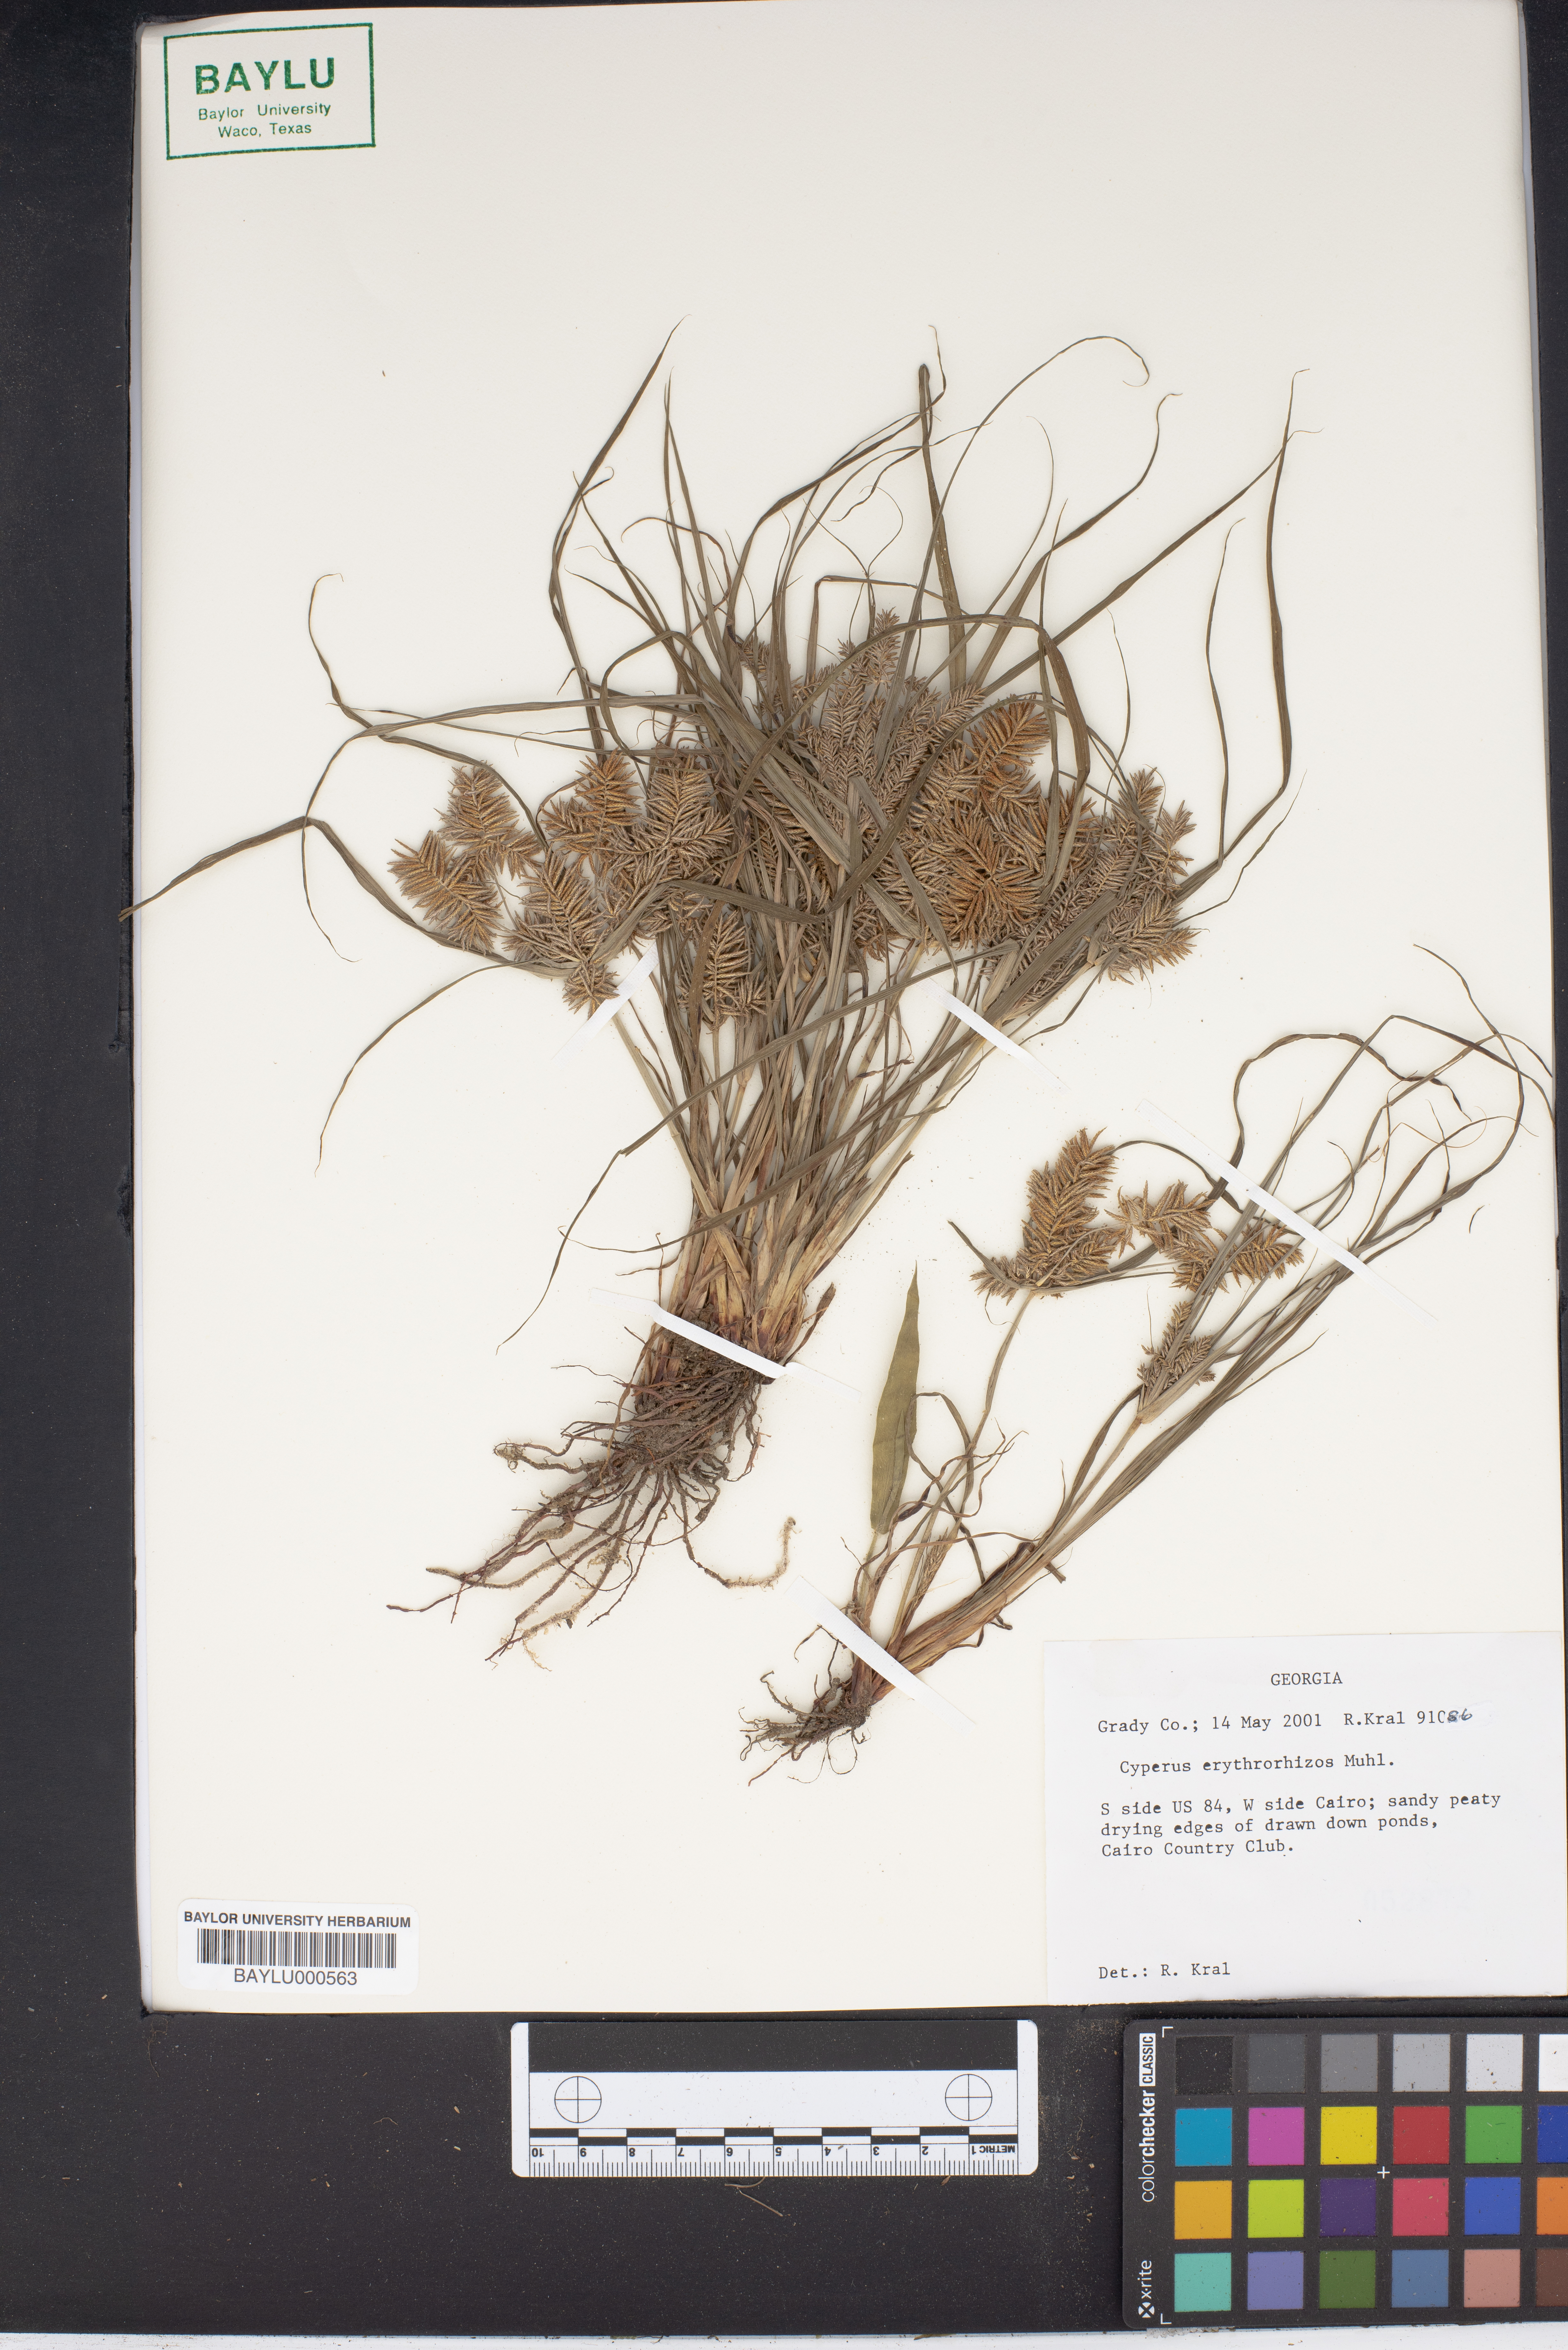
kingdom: Plantae
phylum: Tracheophyta
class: Liliopsida
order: Poales
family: Cyperaceae
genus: Cyperus
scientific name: Cyperus erythrorhizos
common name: Red-root flat sedge
